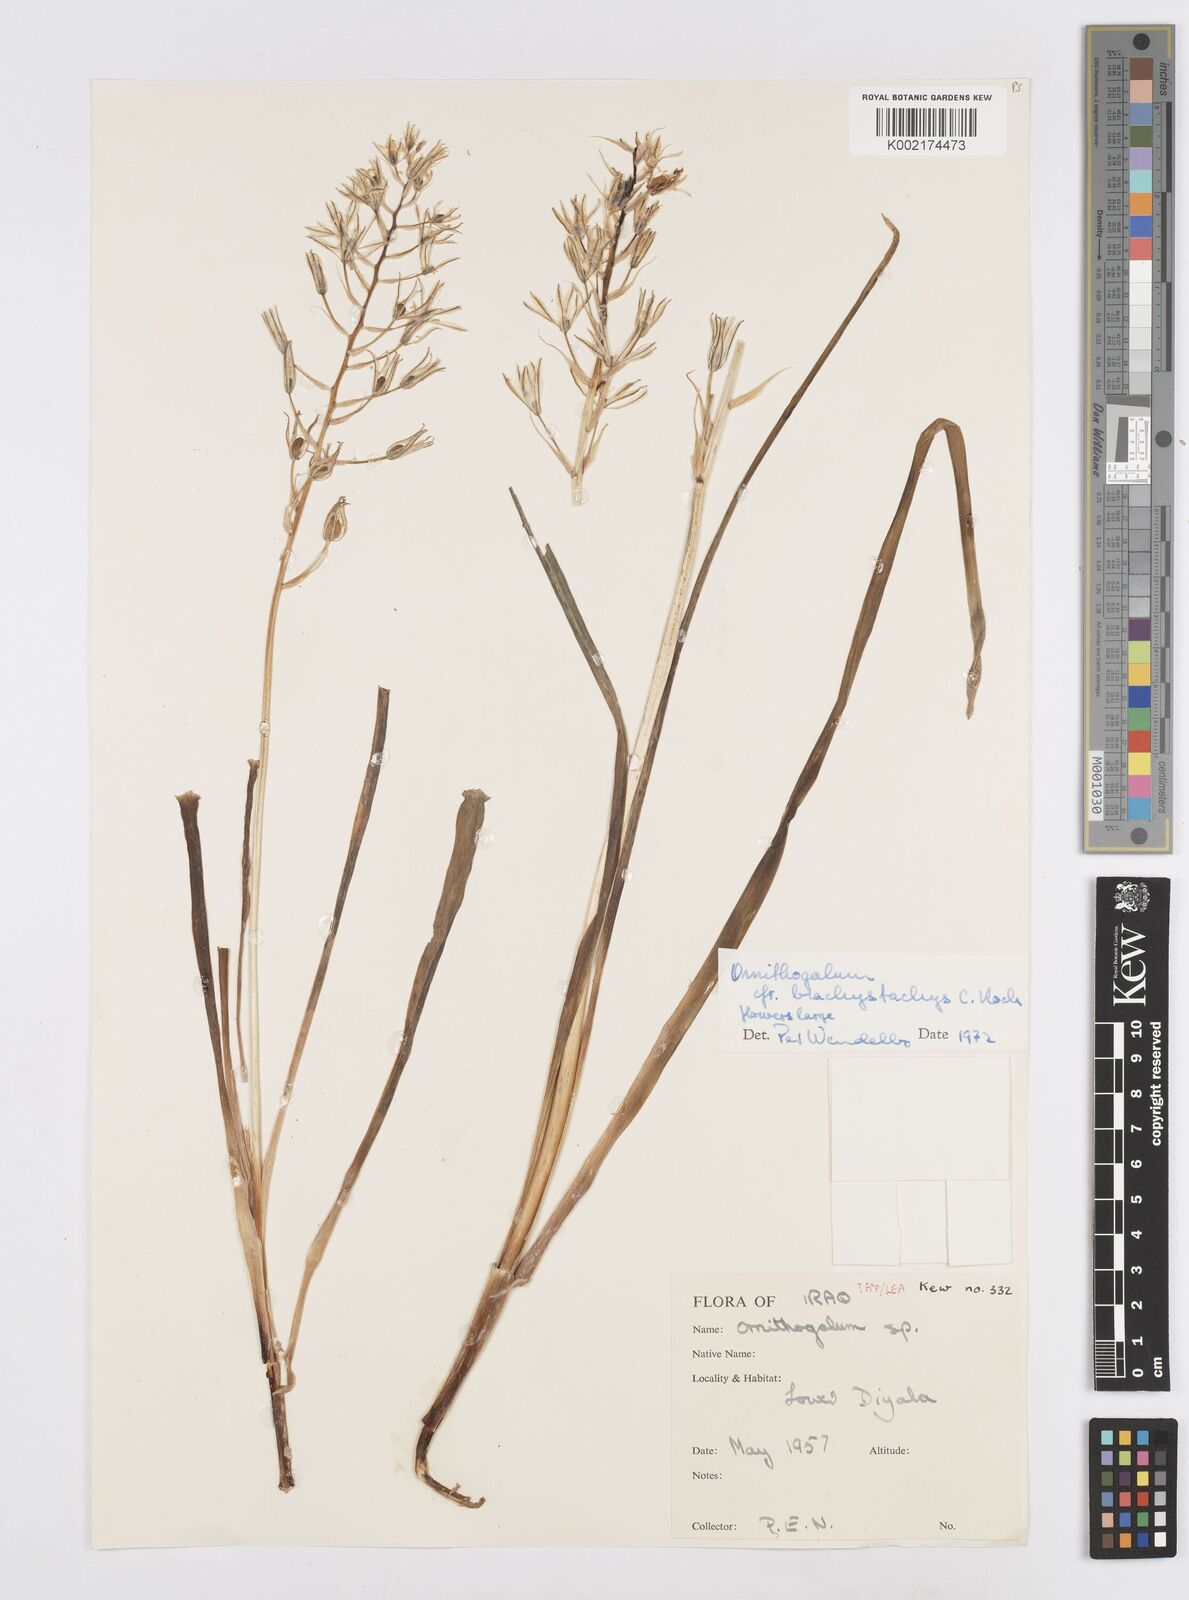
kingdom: Plantae
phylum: Tracheophyta
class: Liliopsida
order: Asparagales
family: Asparagaceae
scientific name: Asparagaceae
